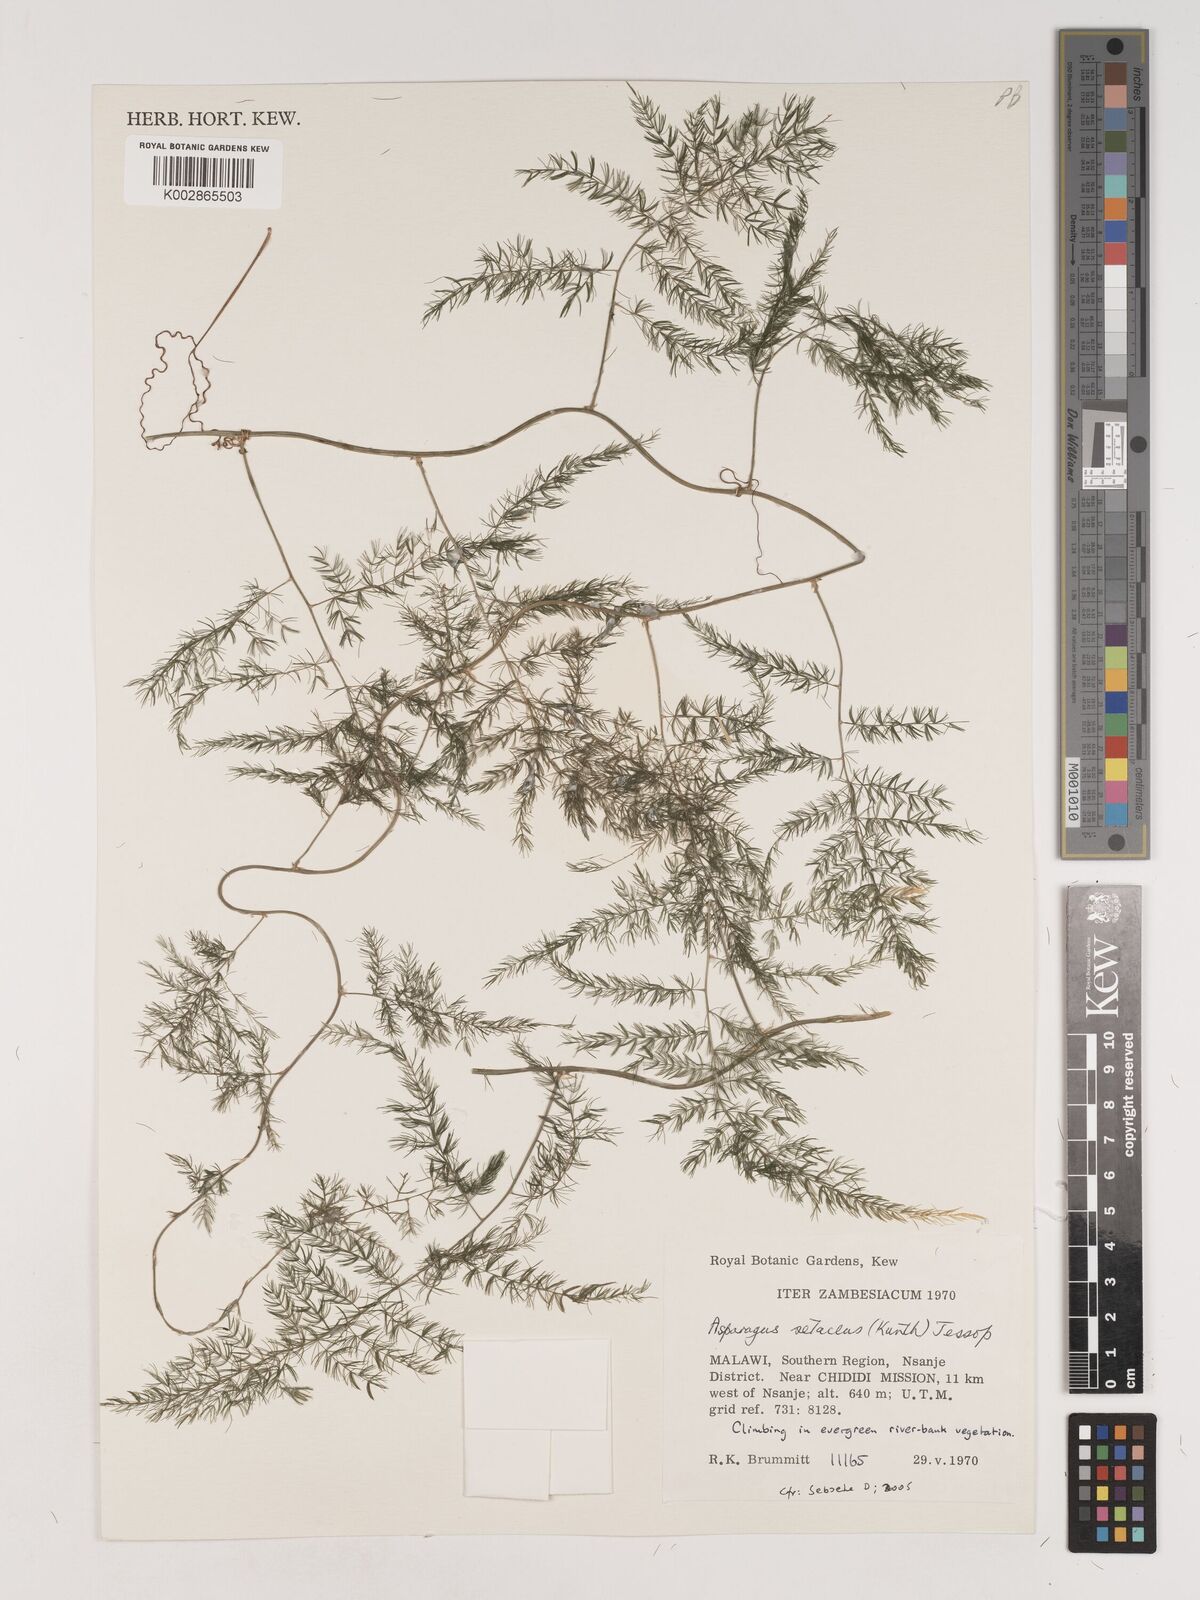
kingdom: Plantae
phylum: Tracheophyta
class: Liliopsida
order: Asparagales
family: Asparagaceae
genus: Asparagus
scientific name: Asparagus setaceus
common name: Common asparagus fern
